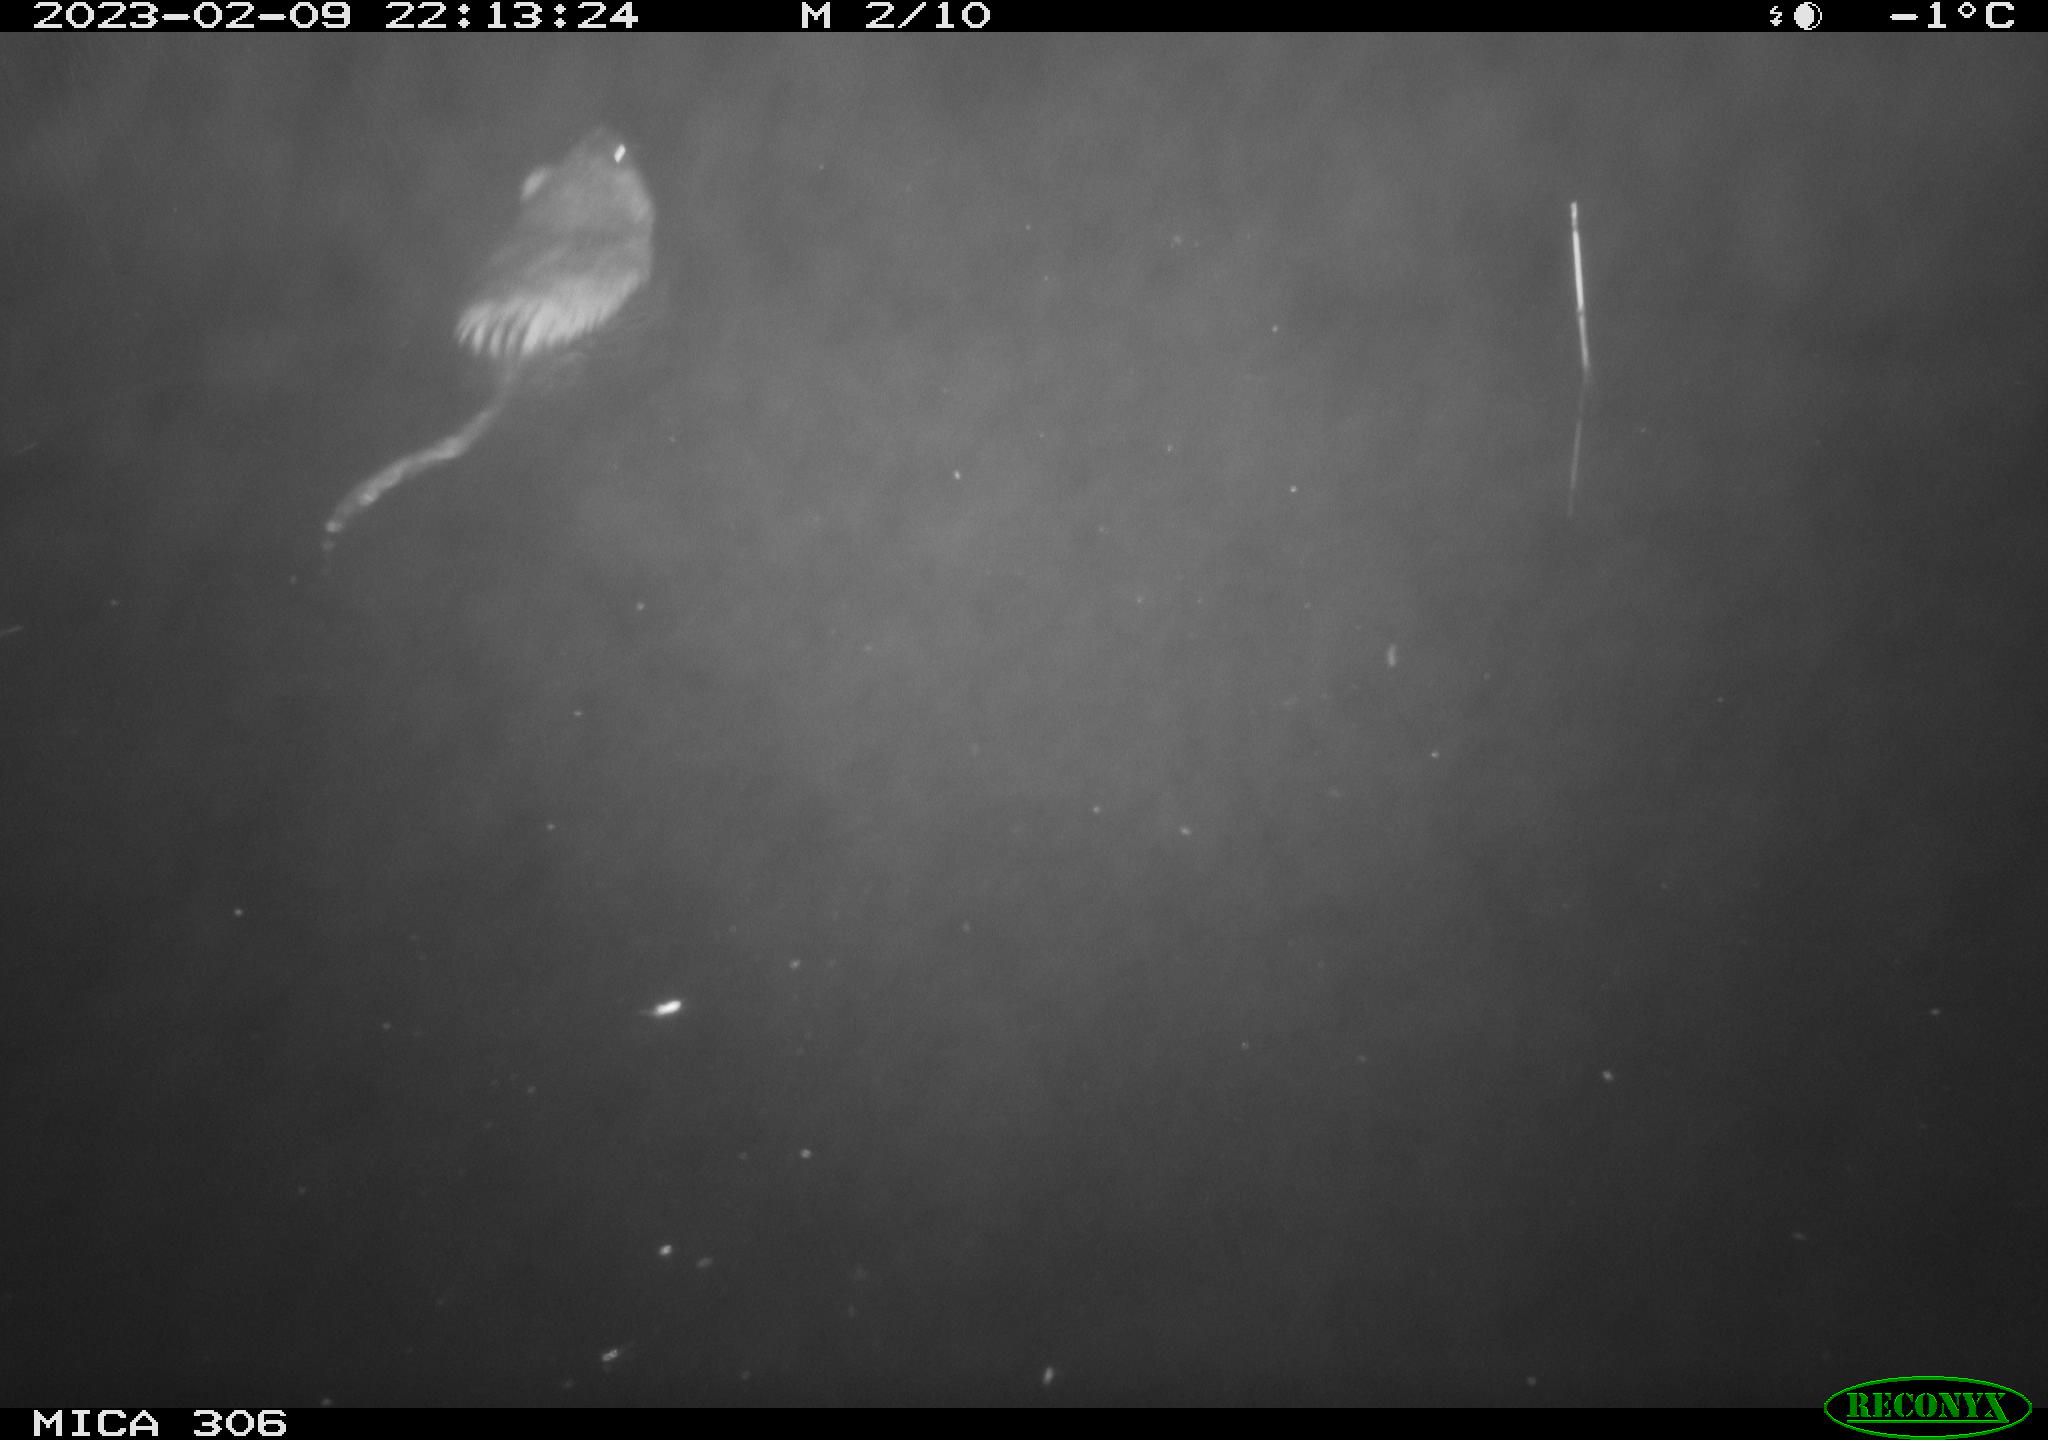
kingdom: Animalia
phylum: Chordata
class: Mammalia
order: Rodentia
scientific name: Rodentia
